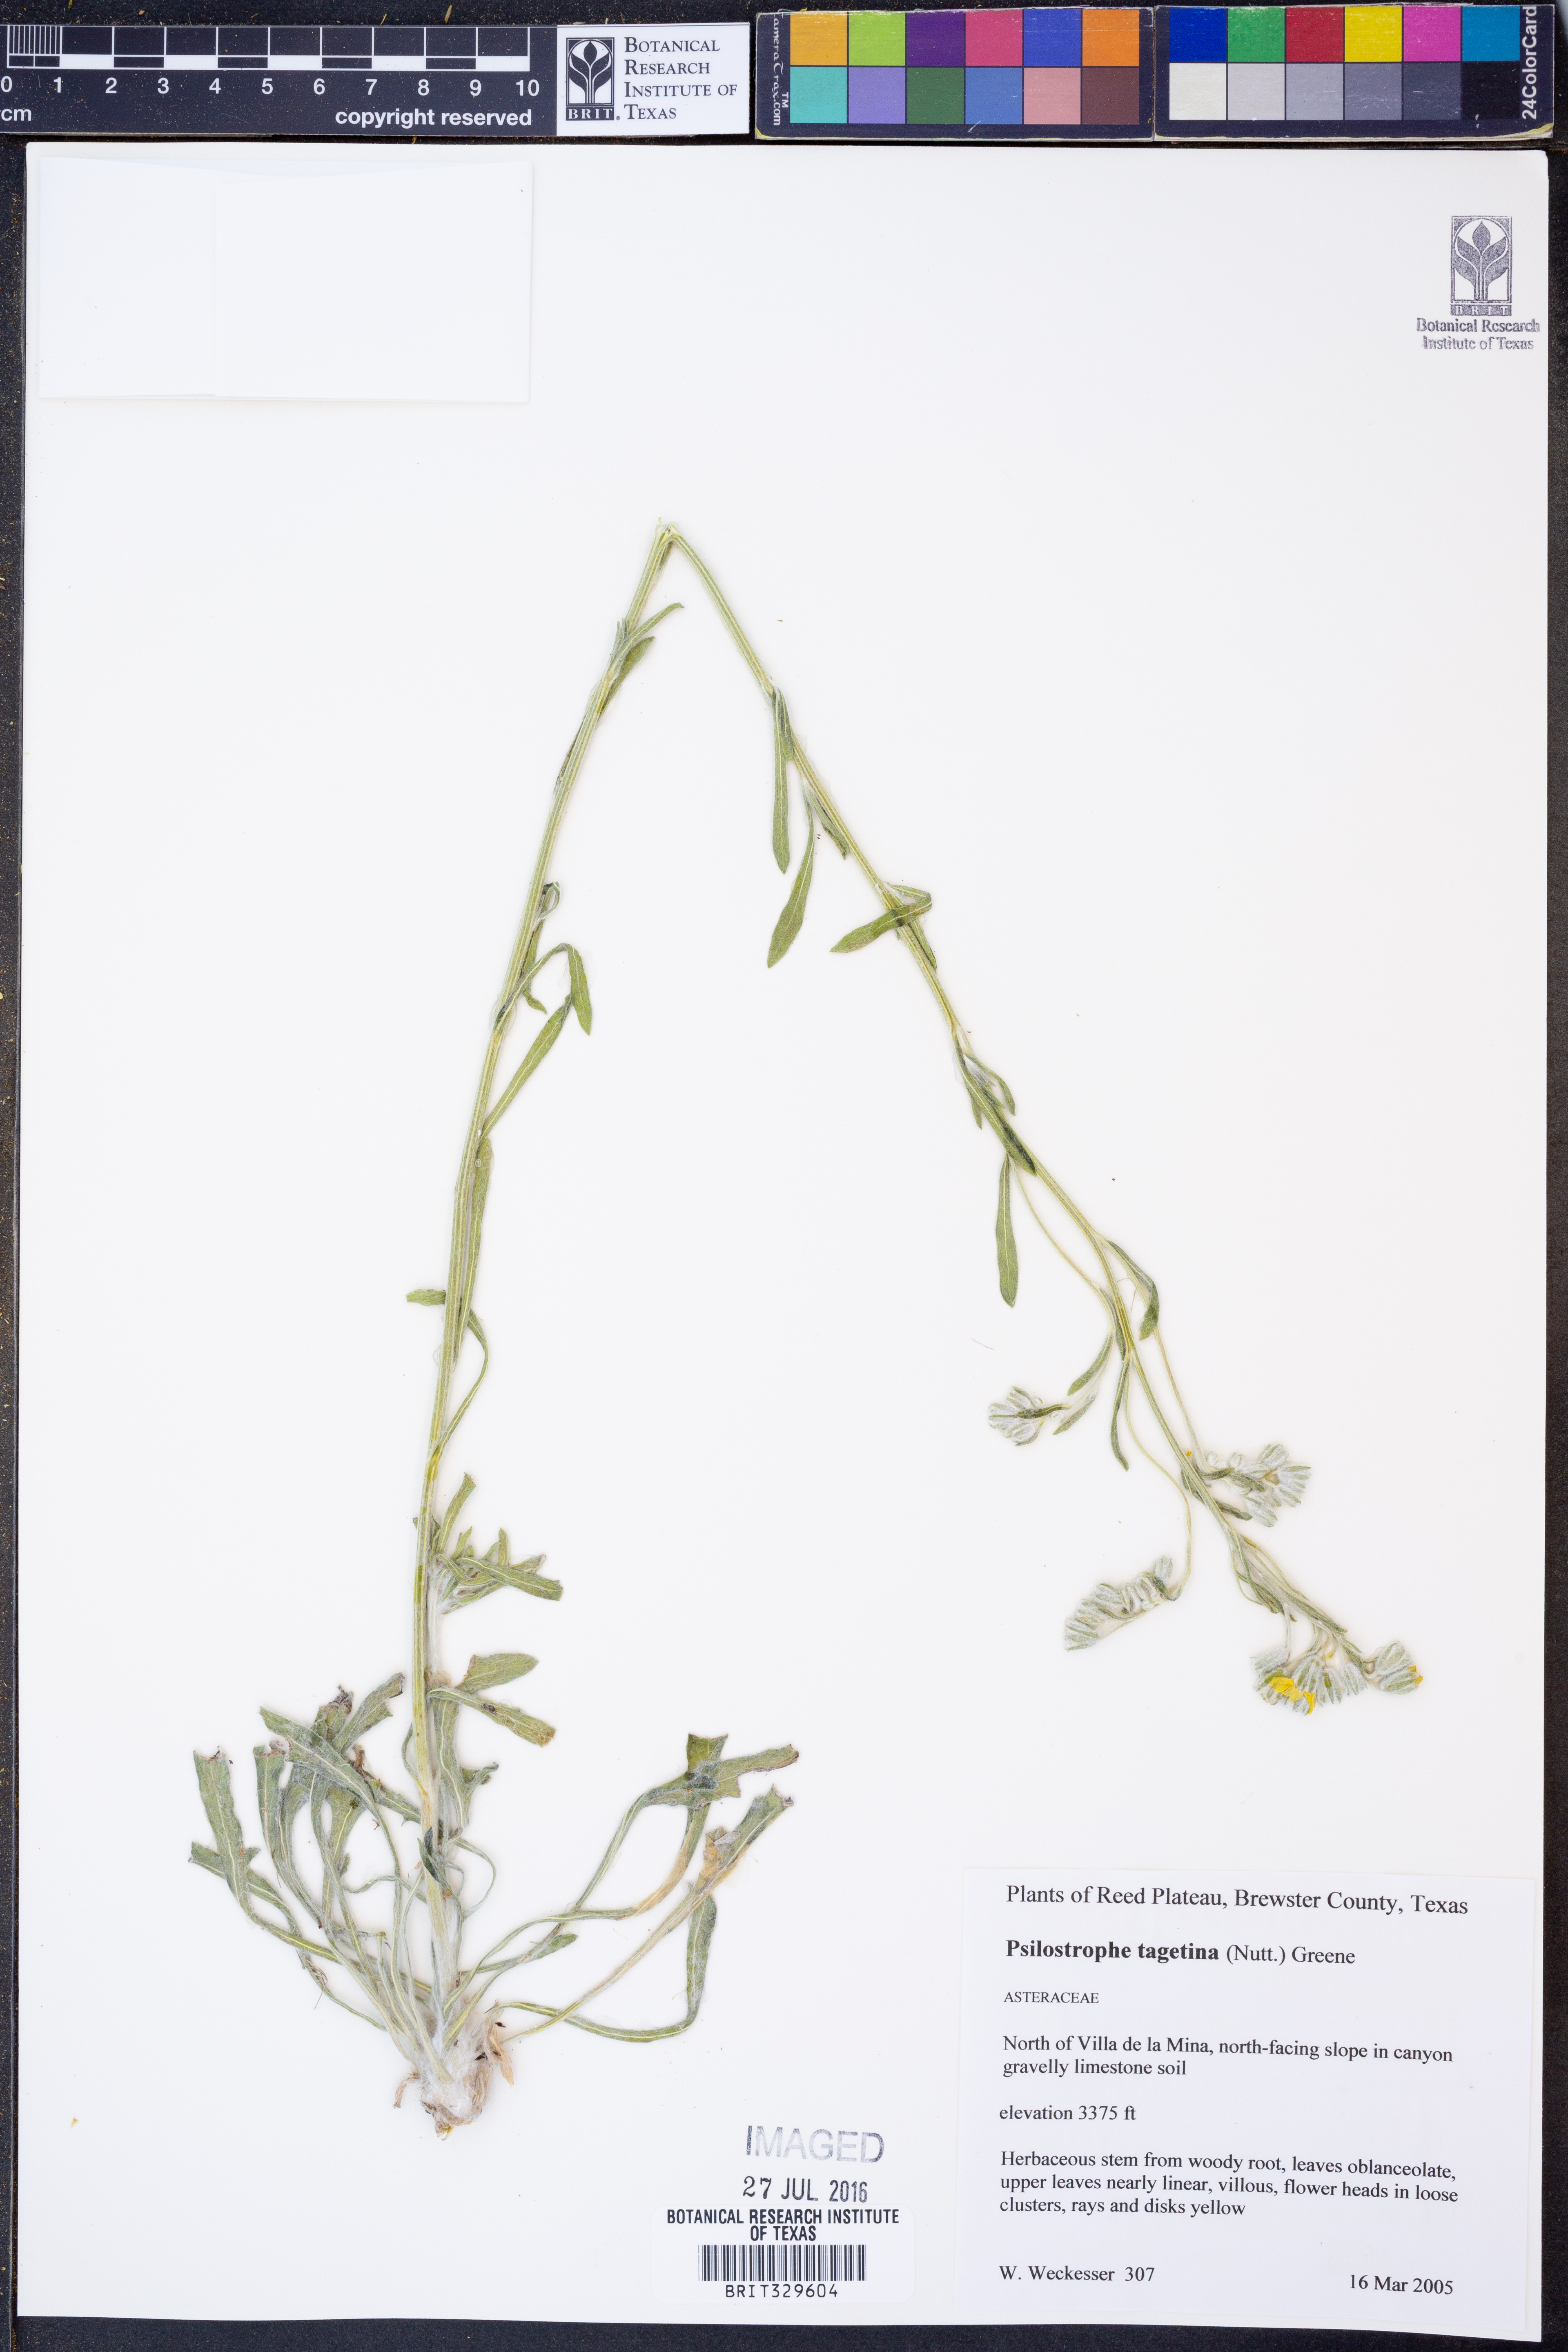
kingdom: Plantae
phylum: Tracheophyta
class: Magnoliopsida
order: Asterales
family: Asteraceae
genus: Psilostrophe
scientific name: Psilostrophe tagetina
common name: Marigold paper-flower
